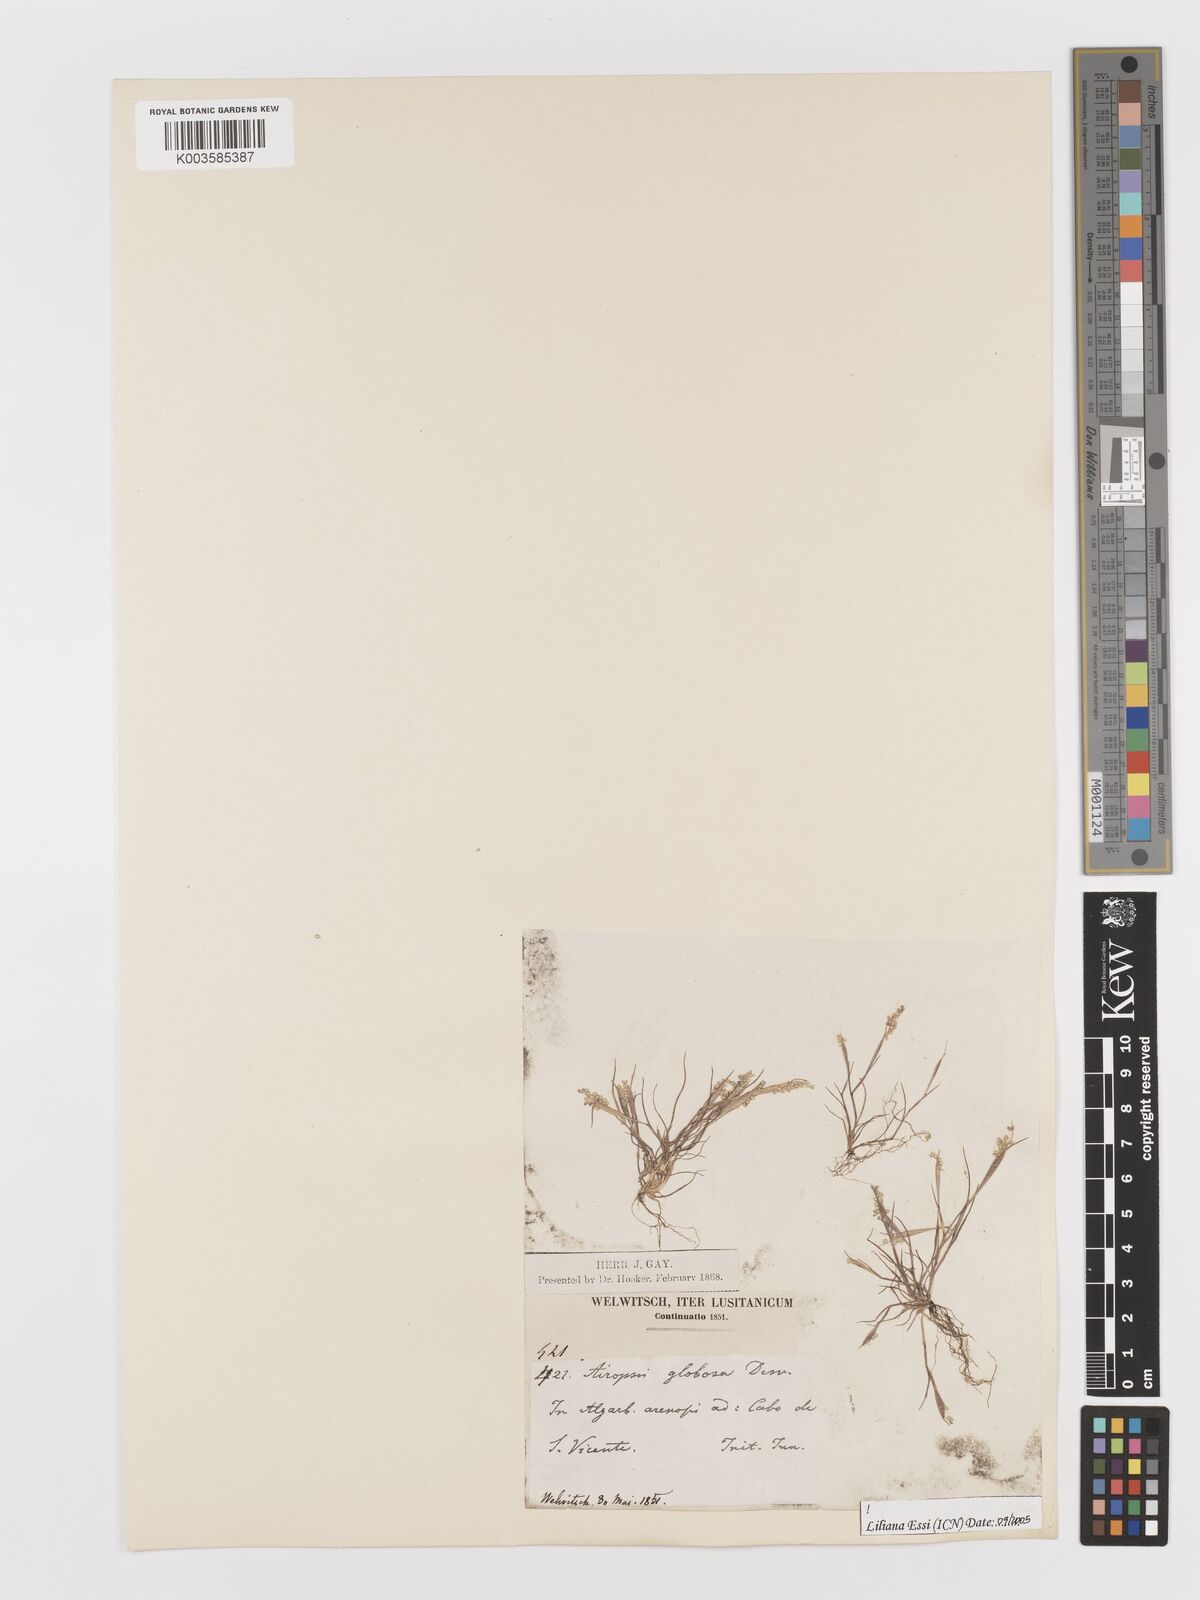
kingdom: Plantae
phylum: Tracheophyta
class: Liliopsida
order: Poales
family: Poaceae
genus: Airopsis
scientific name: Airopsis tenella
